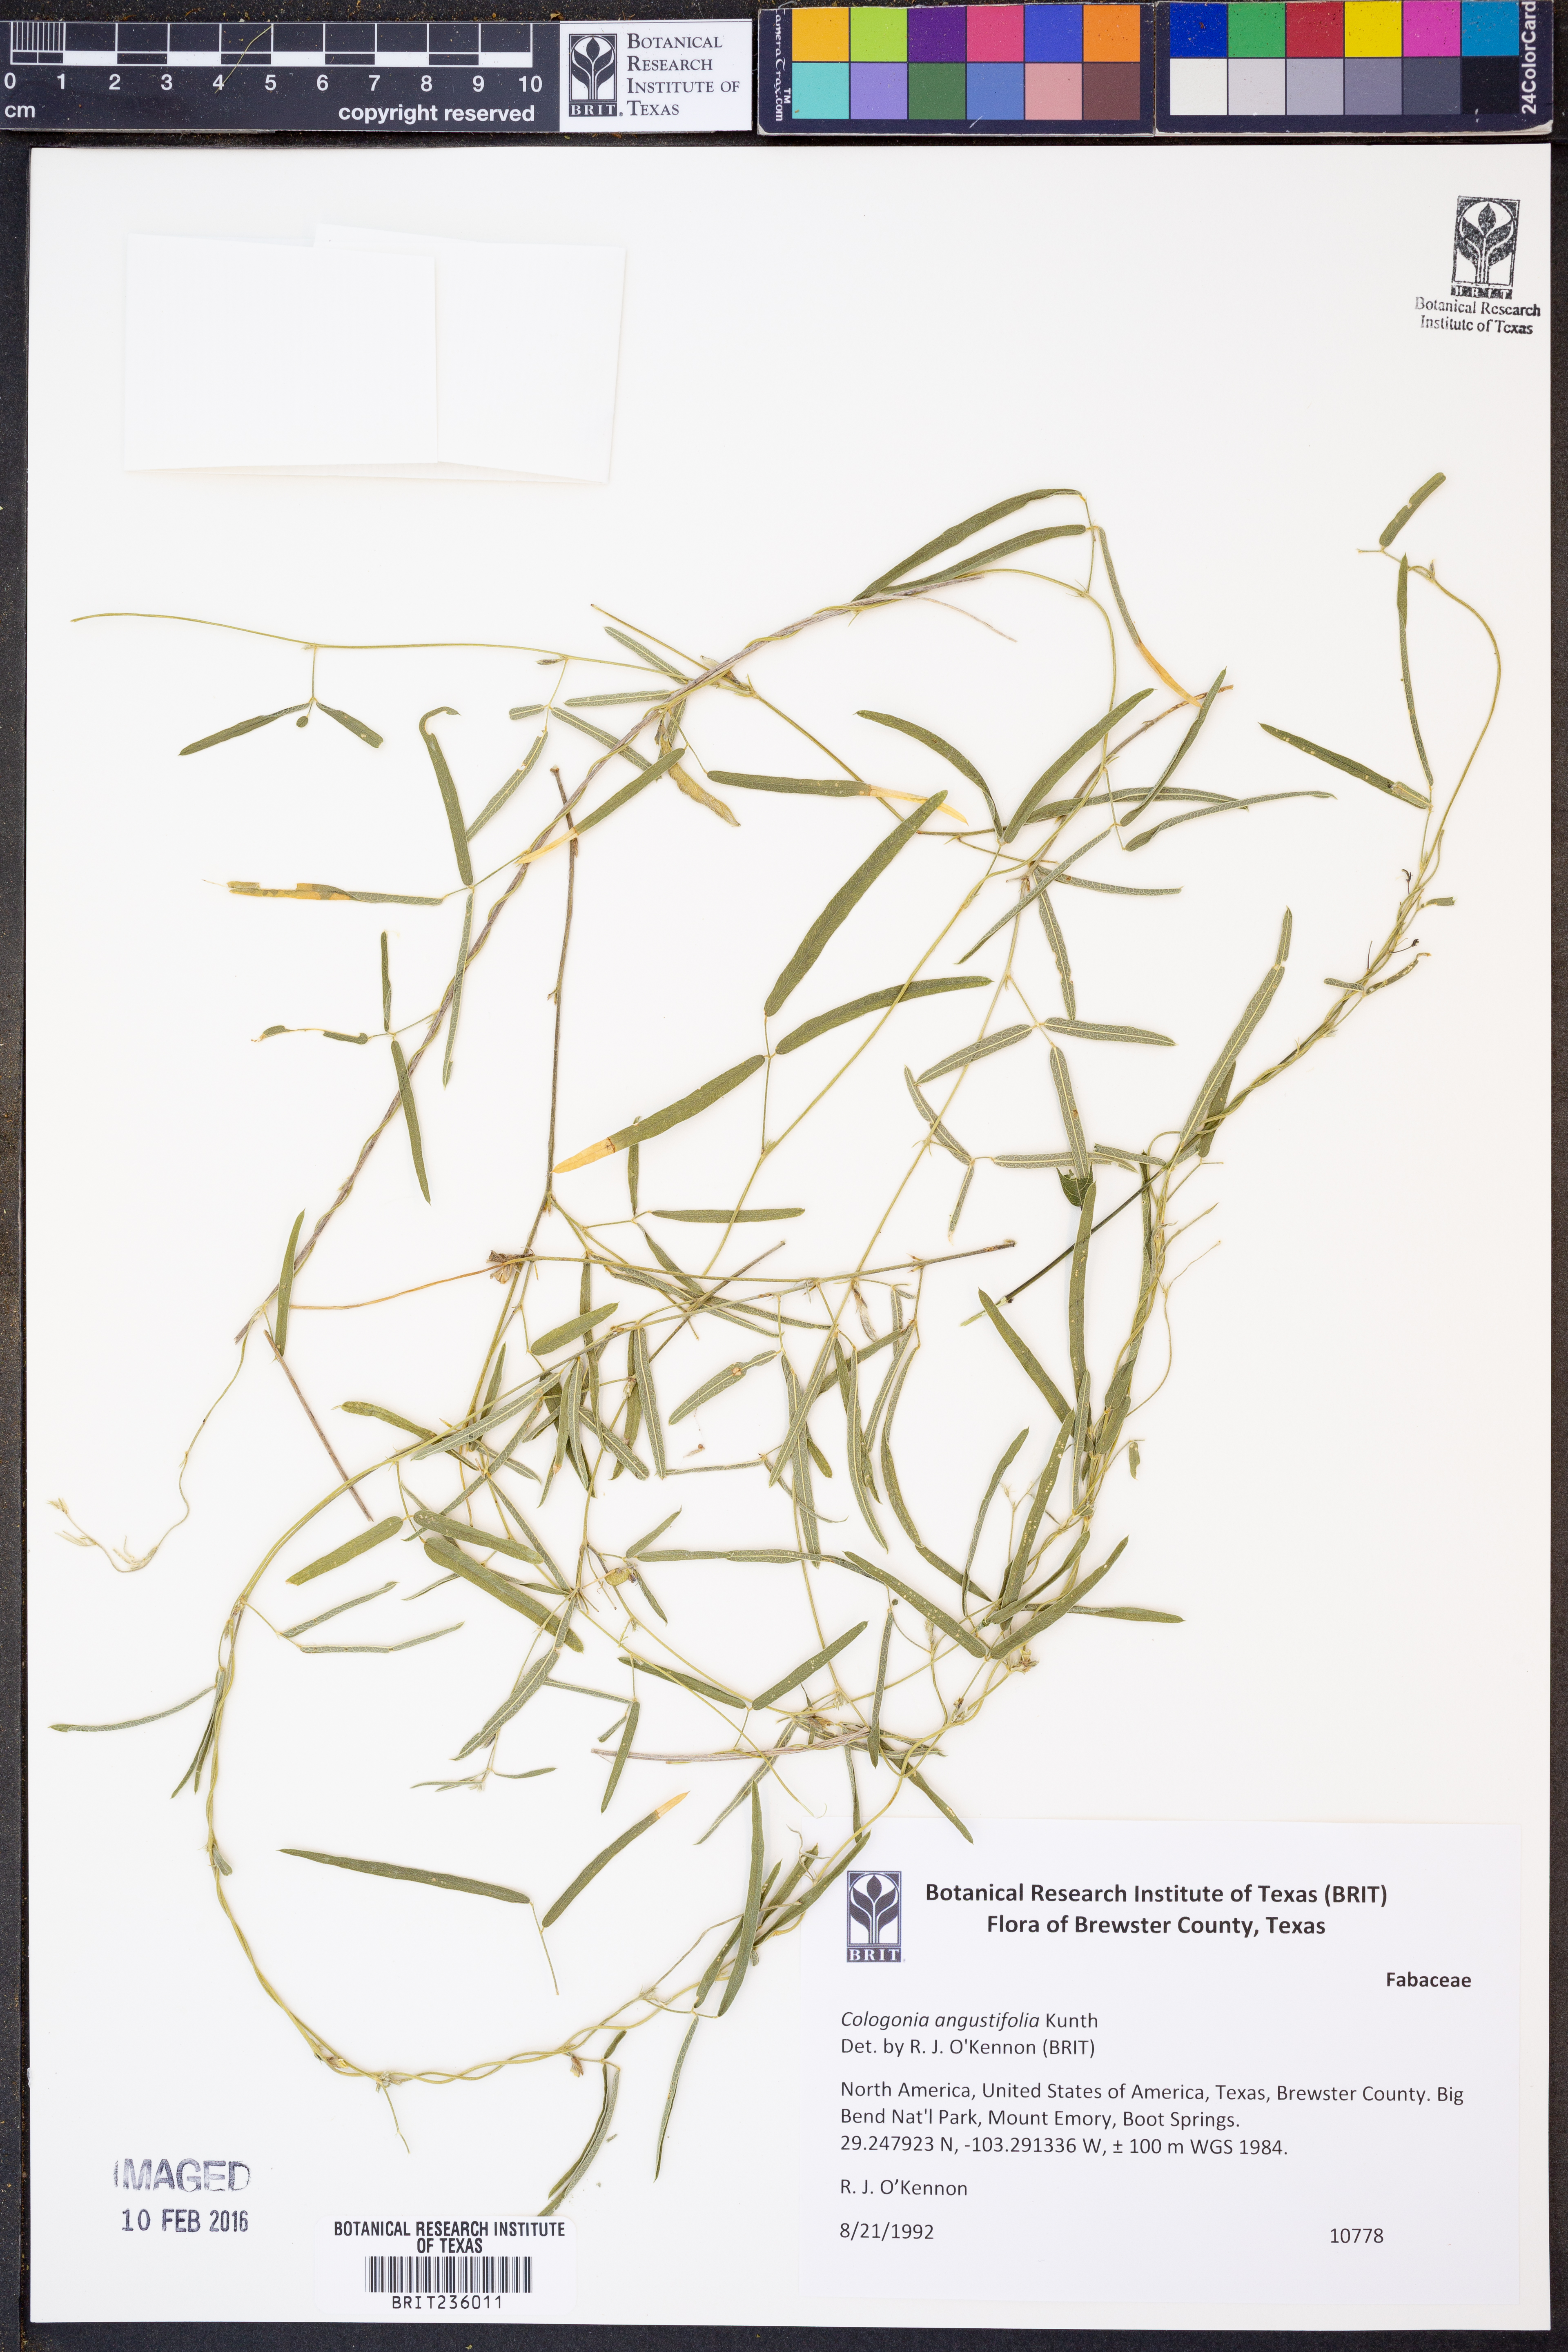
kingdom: Plantae
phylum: Tracheophyta
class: Magnoliopsida
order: Fabales
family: Fabaceae
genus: Cologania
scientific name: Cologania angustifolia
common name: Longleaf cologania
